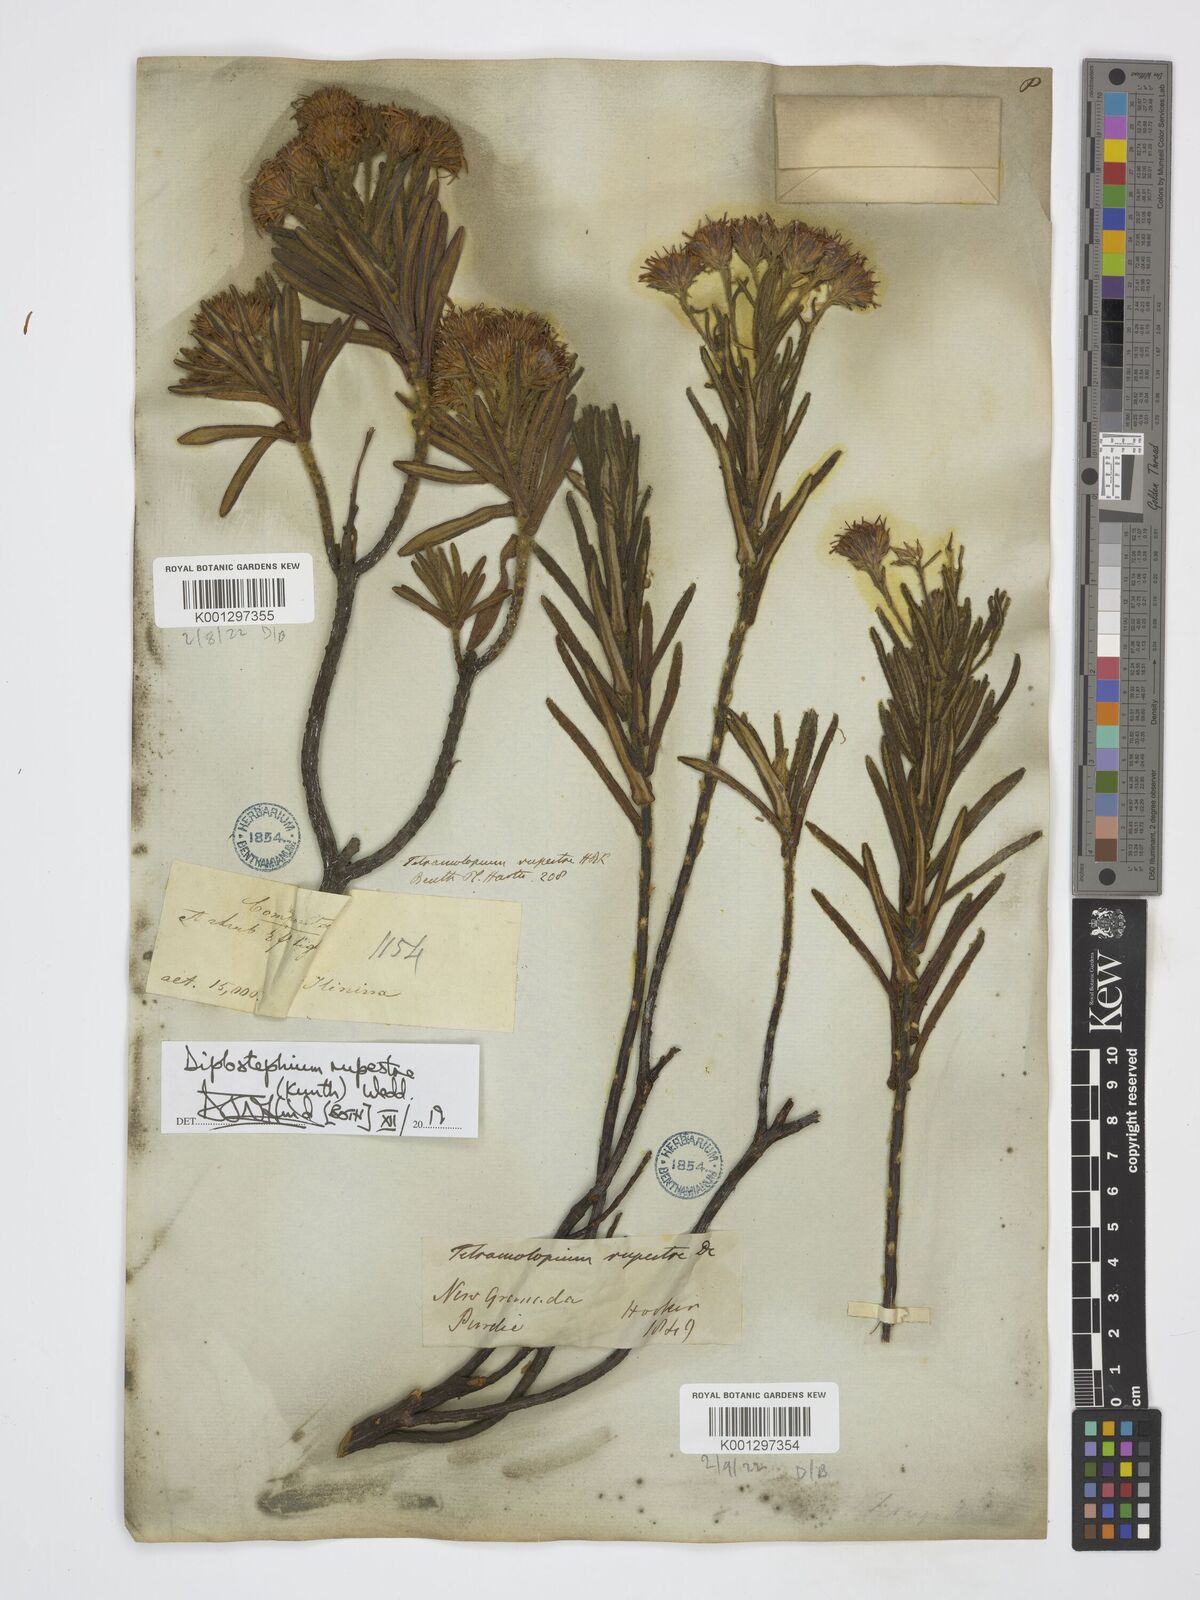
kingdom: Plantae
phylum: Tracheophyta
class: Magnoliopsida
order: Asterales
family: Asteraceae
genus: Linochilus
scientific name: Linochilus rupestris
